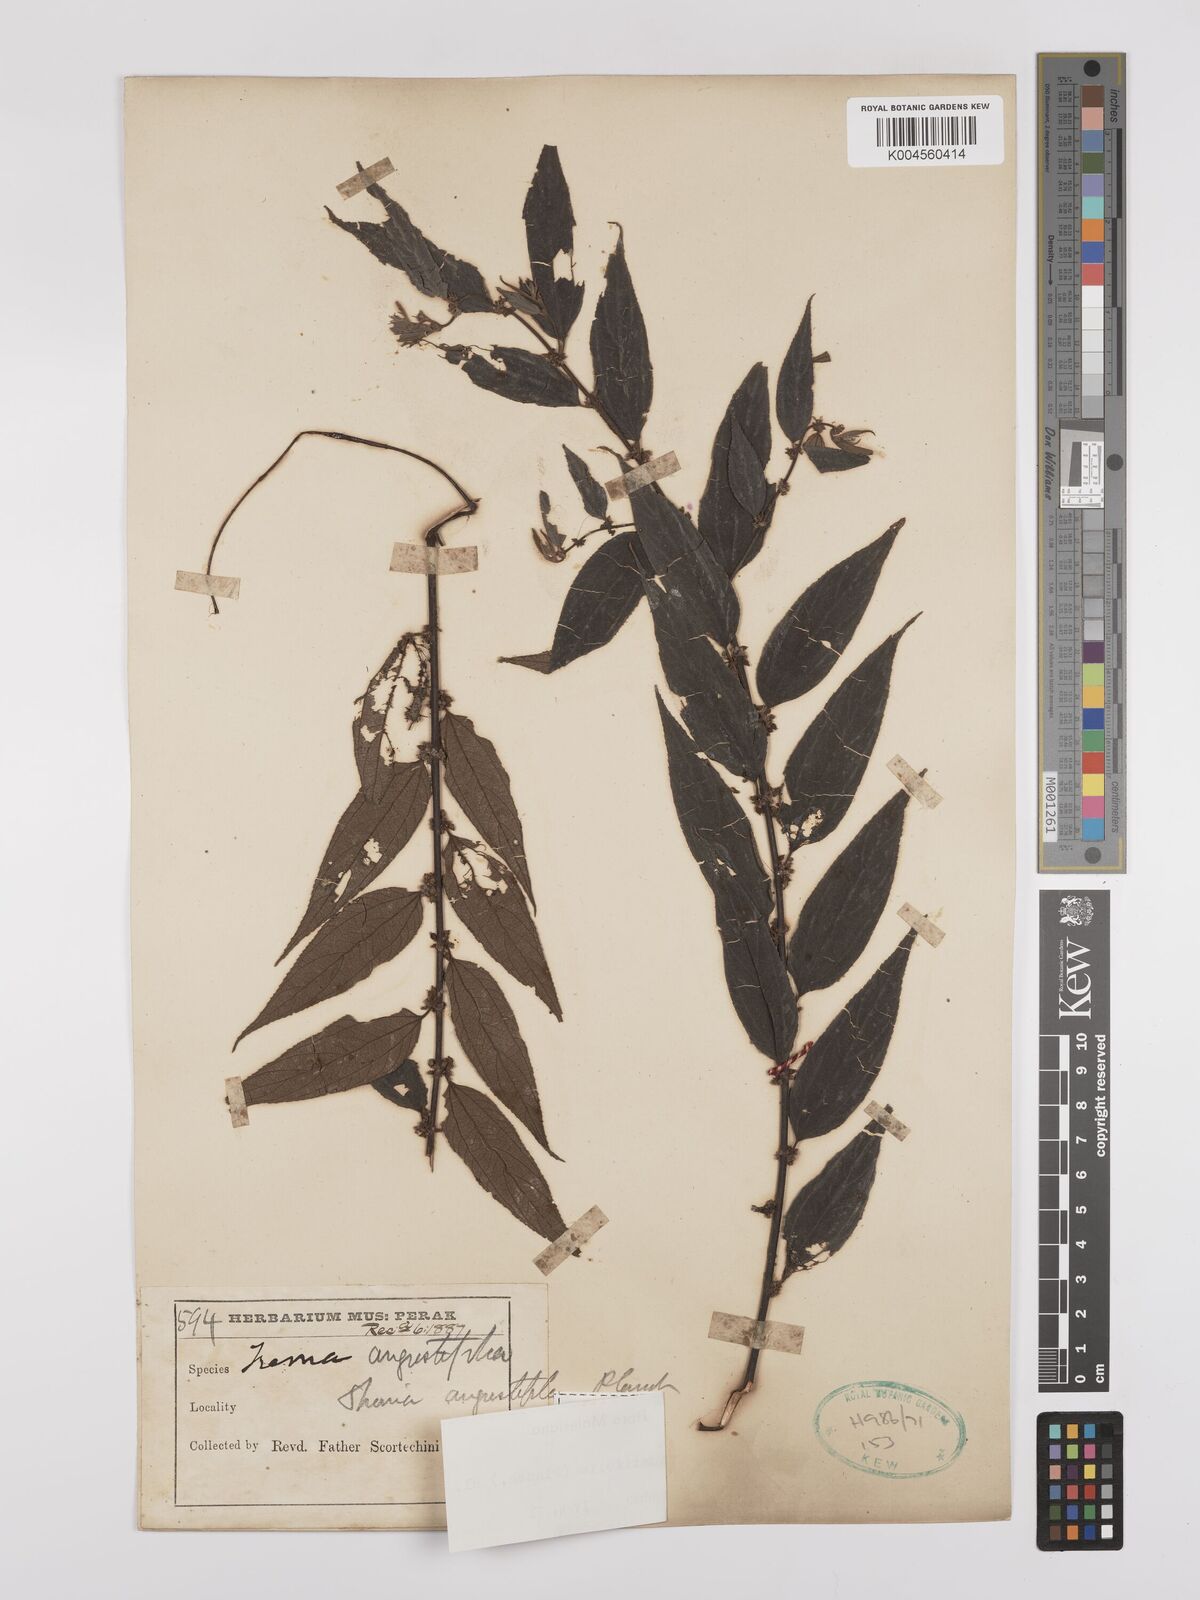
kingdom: Plantae
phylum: Tracheophyta
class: Magnoliopsida
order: Rosales
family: Cannabaceae
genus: Trema
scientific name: Trema angustifolium
